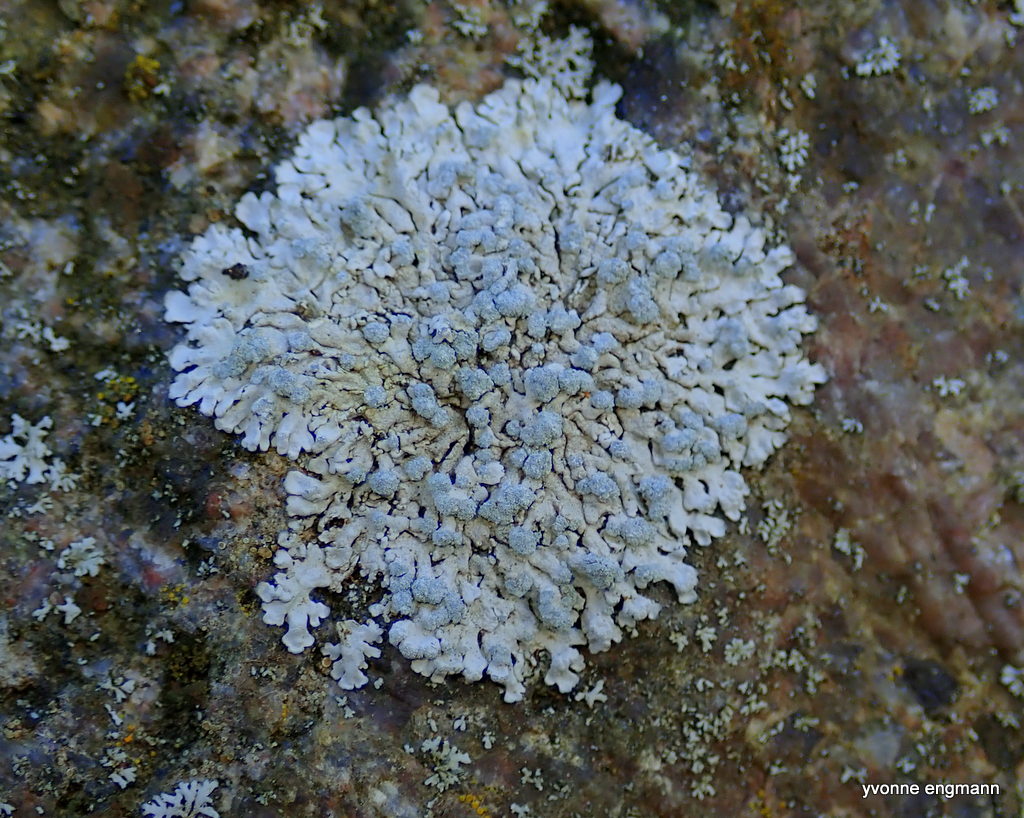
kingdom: Fungi
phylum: Ascomycota
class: Lecanoromycetes
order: Caliciales
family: Physciaceae
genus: Physcia
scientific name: Physcia caesia
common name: blågrå rosetlav
